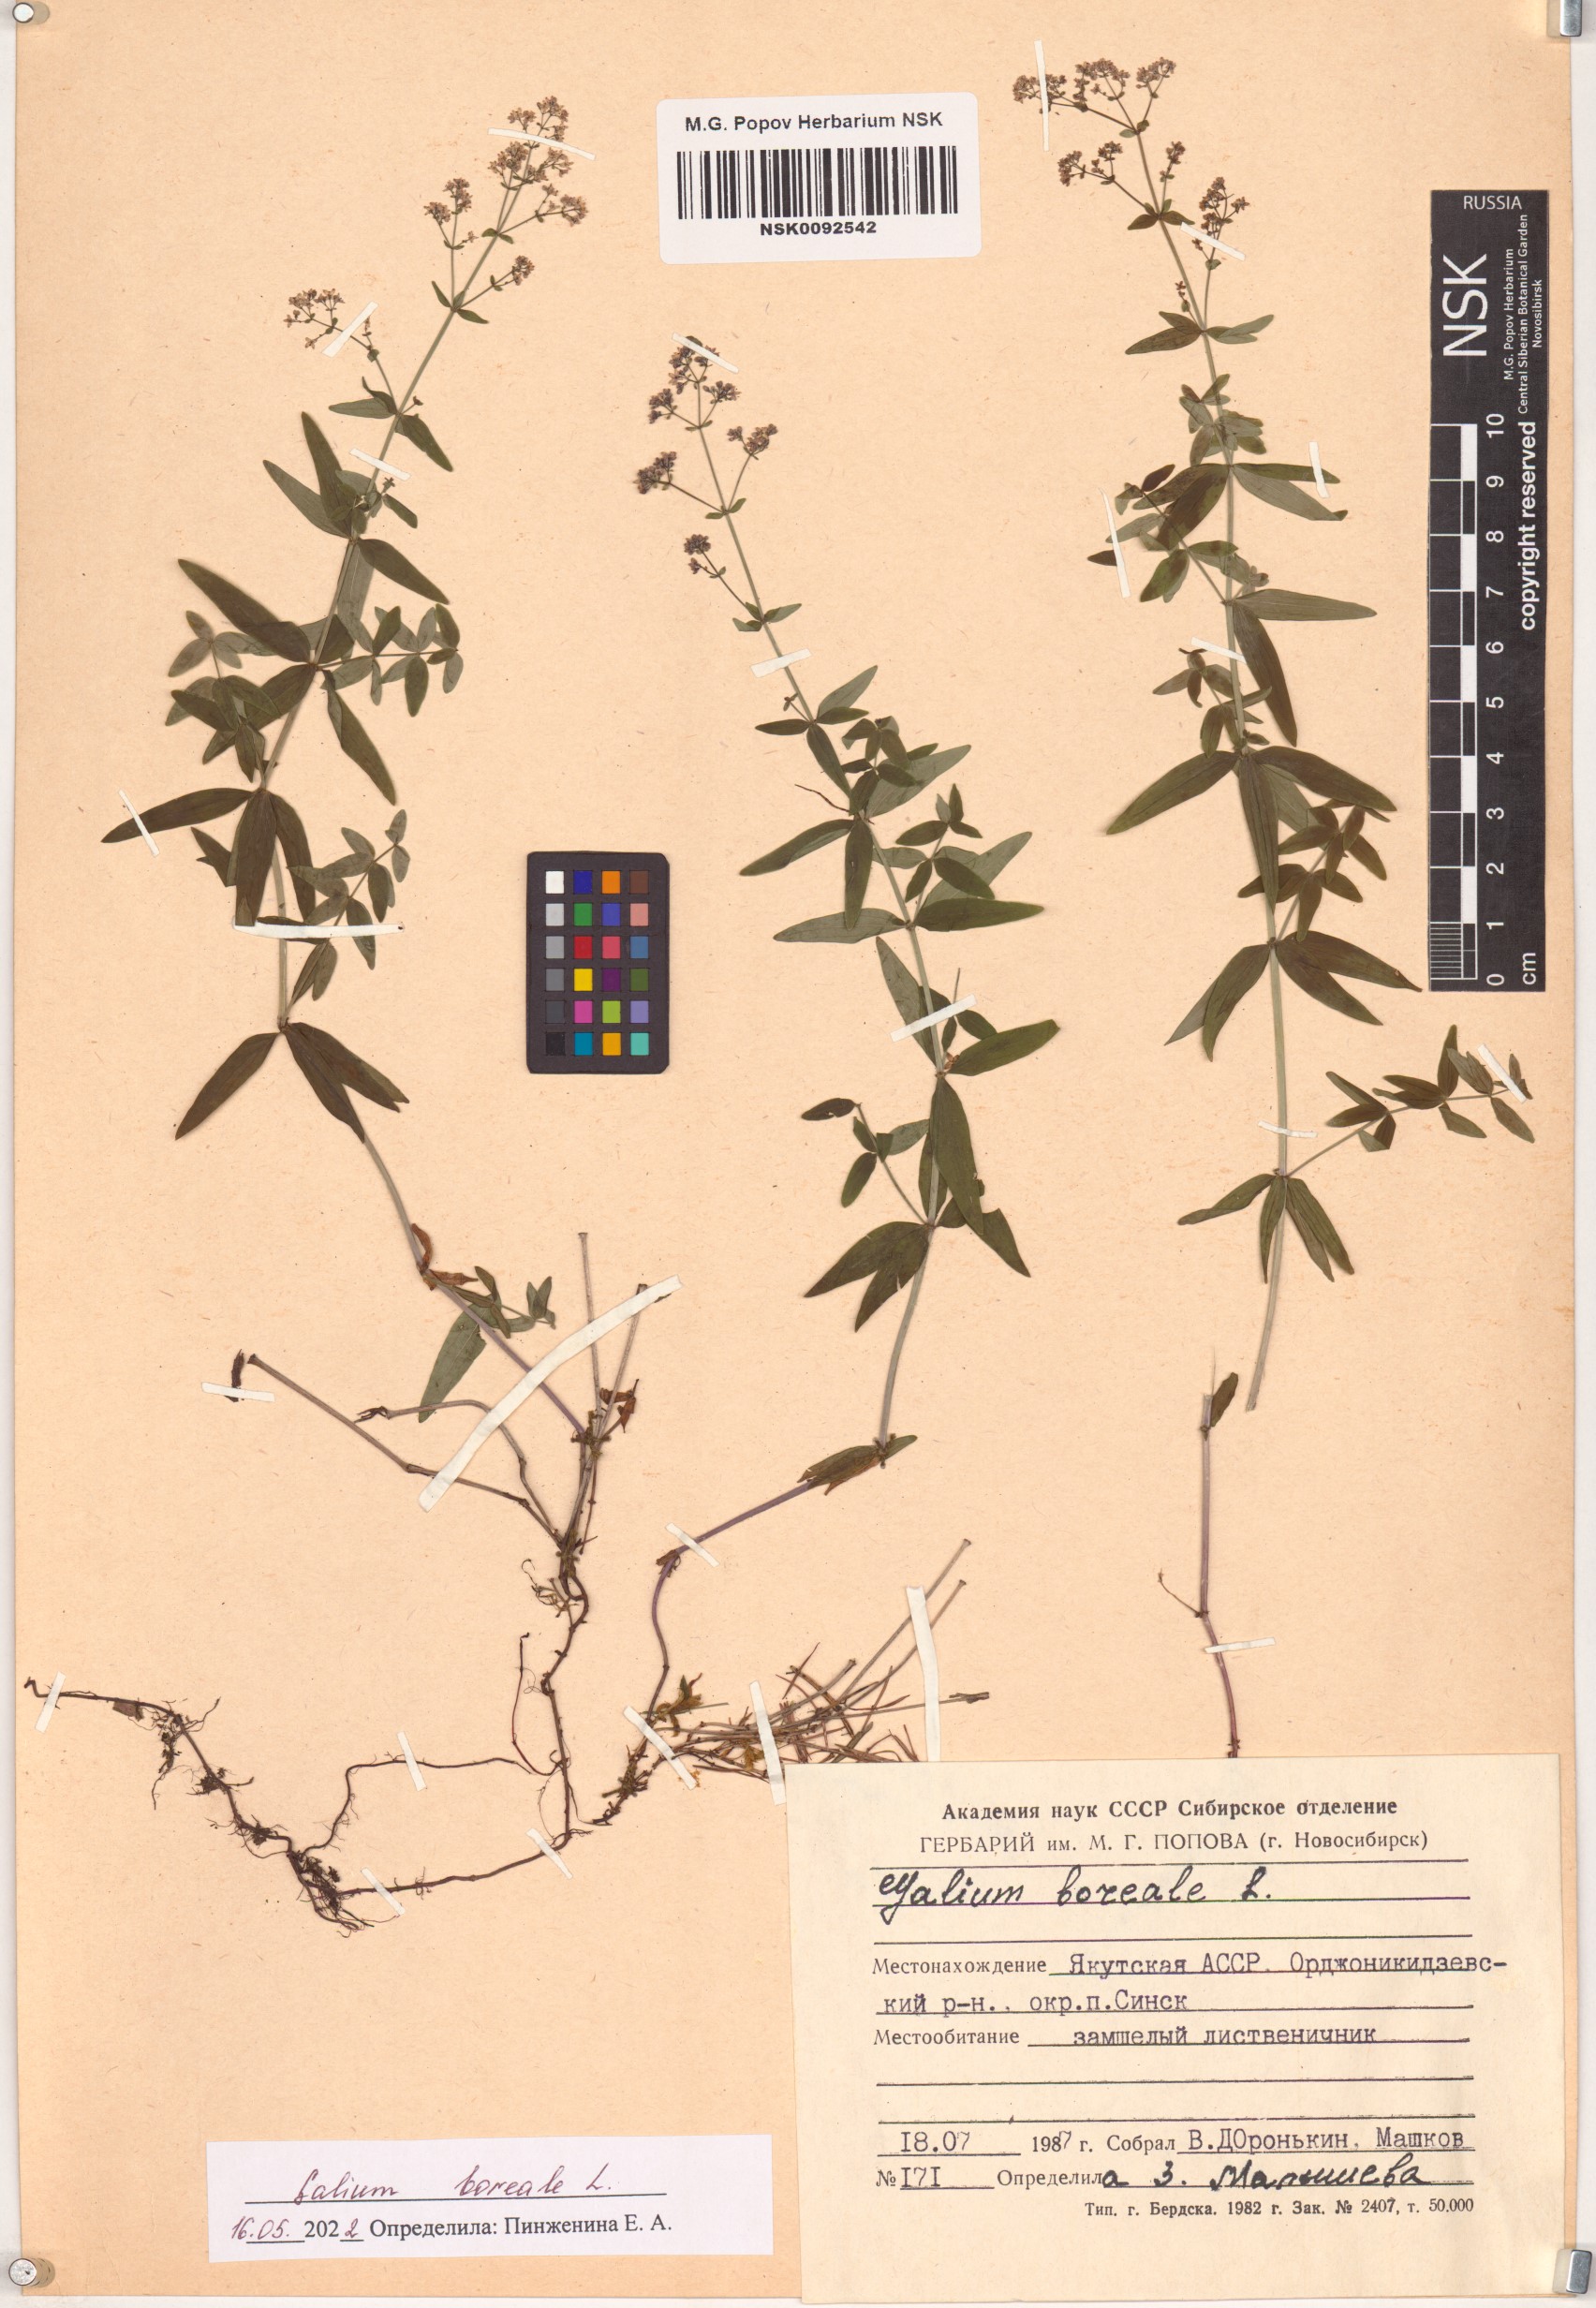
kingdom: Plantae
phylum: Tracheophyta
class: Magnoliopsida
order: Gentianales
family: Rubiaceae
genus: Galium
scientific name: Galium boreale
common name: Northern bedstraw
